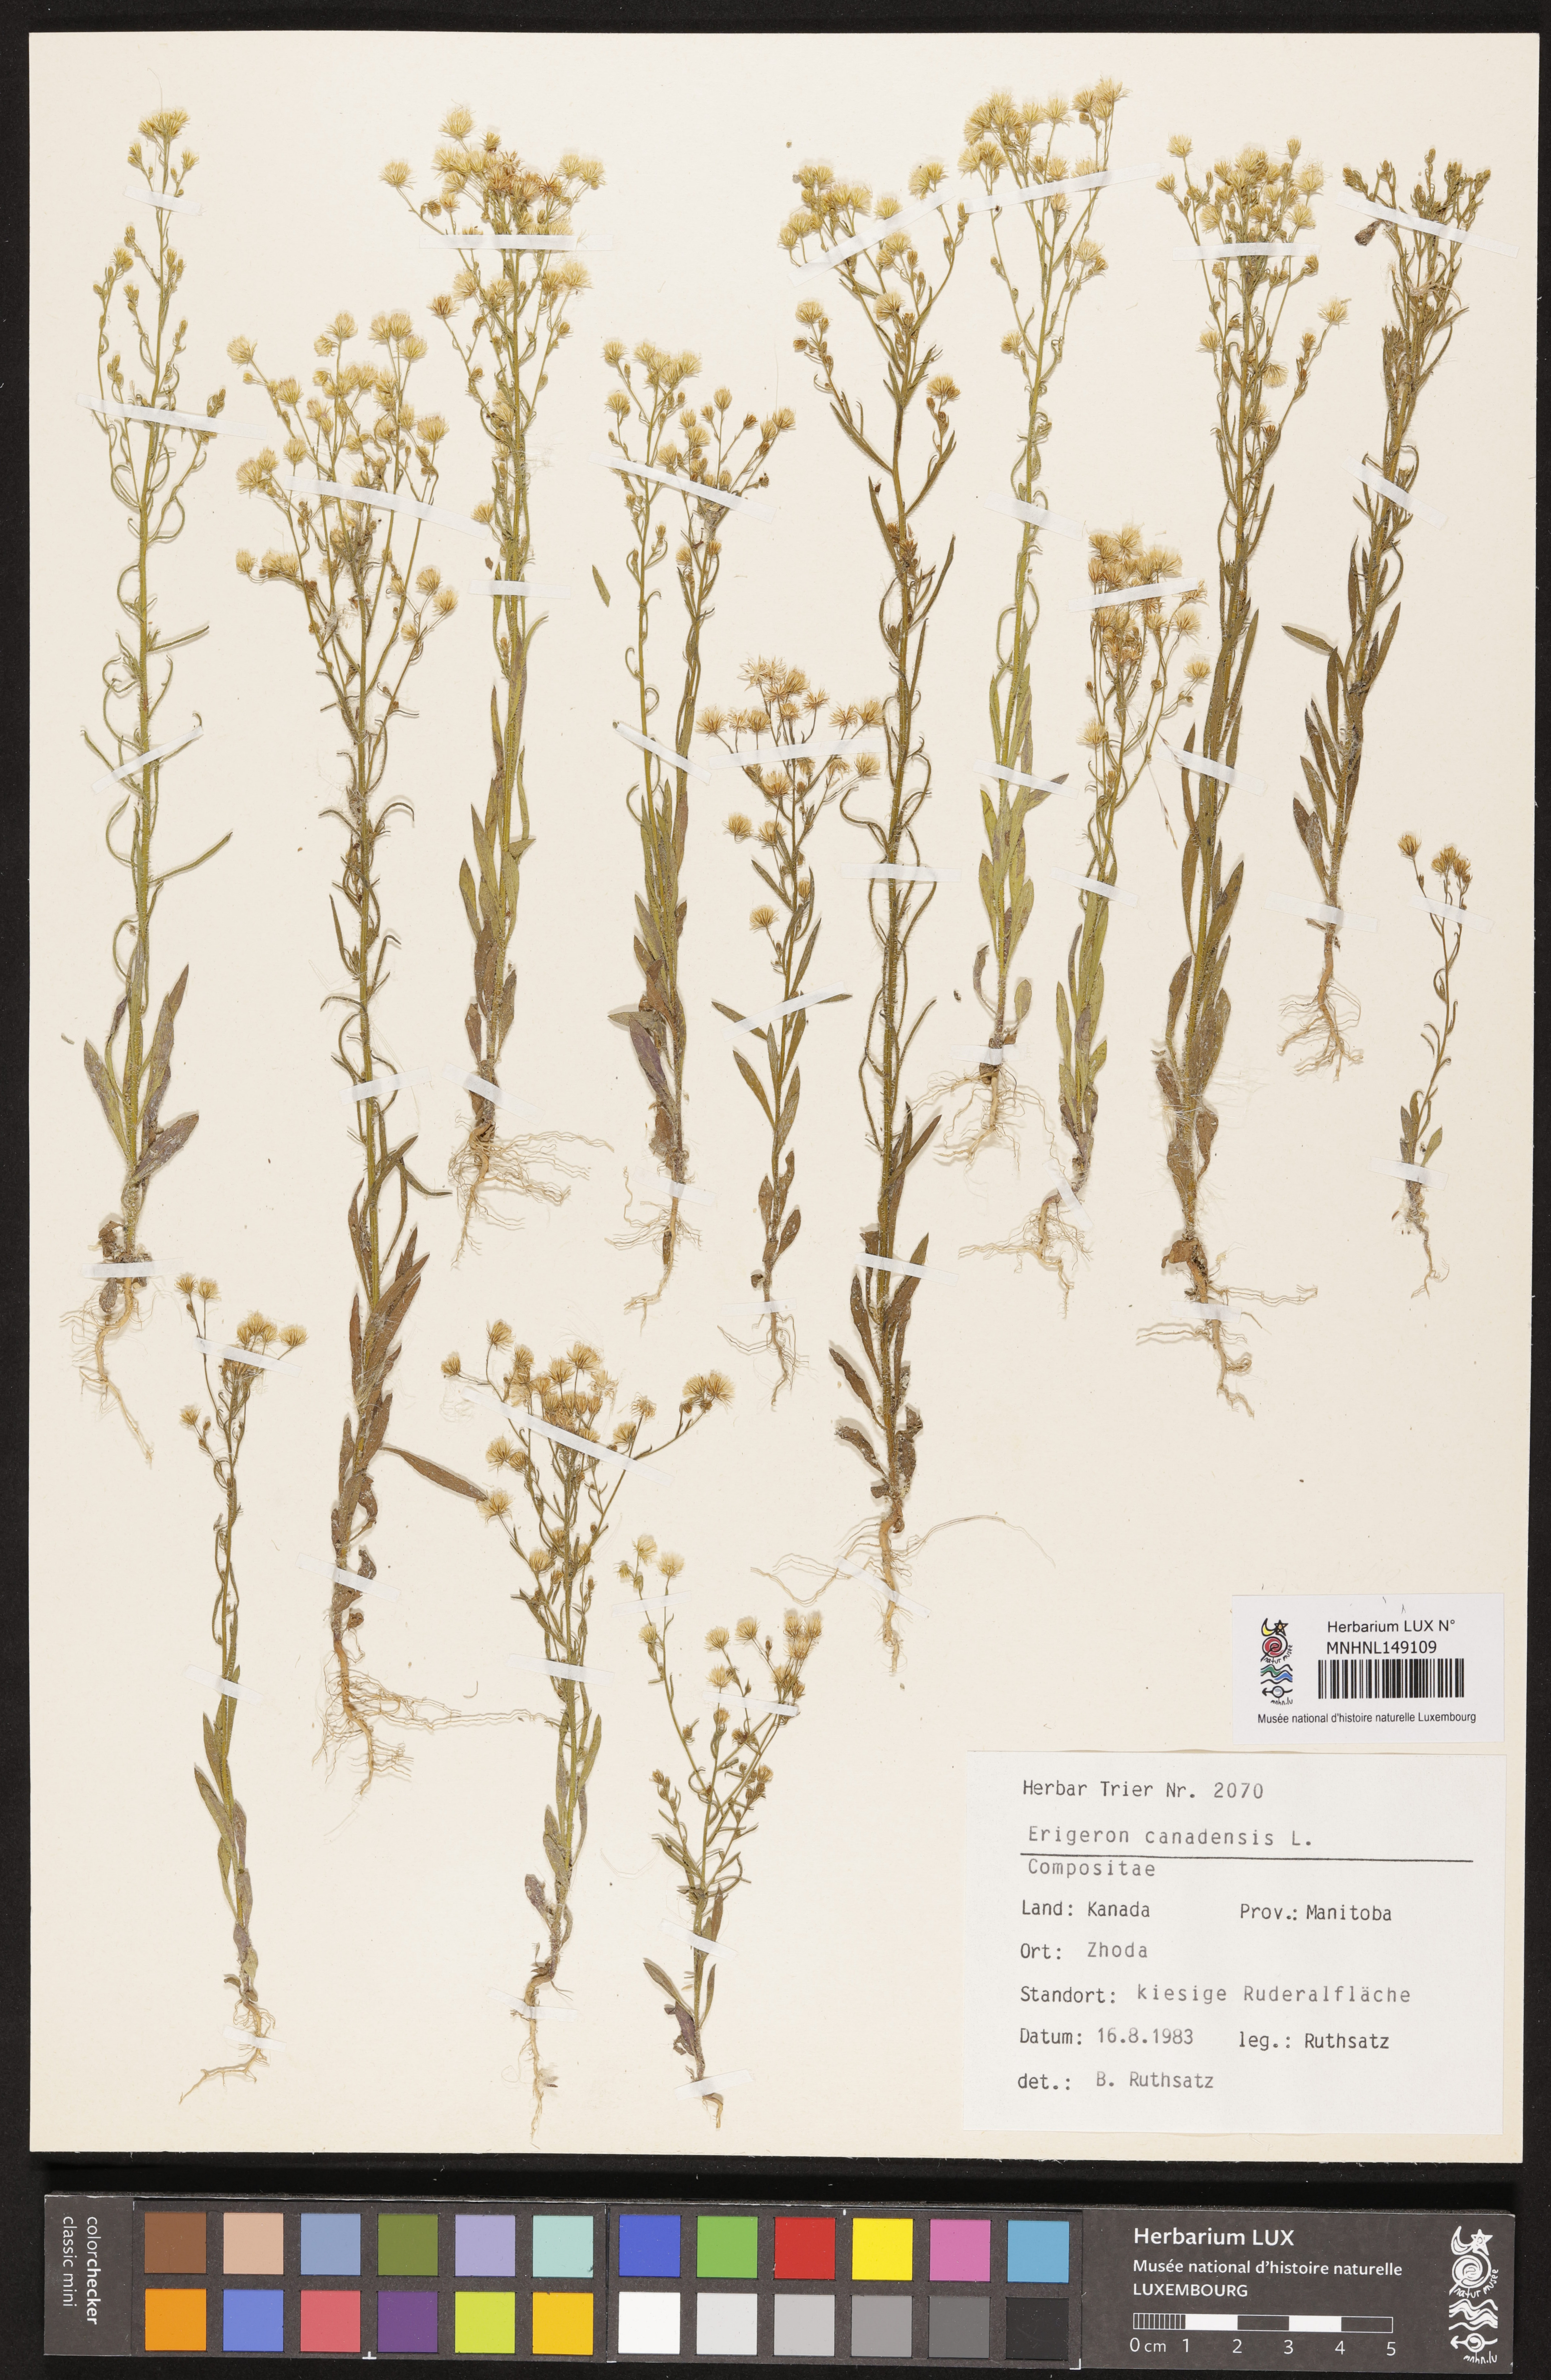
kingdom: Plantae
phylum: Tracheophyta
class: Magnoliopsida
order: Asterales
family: Asteraceae
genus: Erigeron
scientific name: Erigeron canadensis
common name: Canadian fleabane
